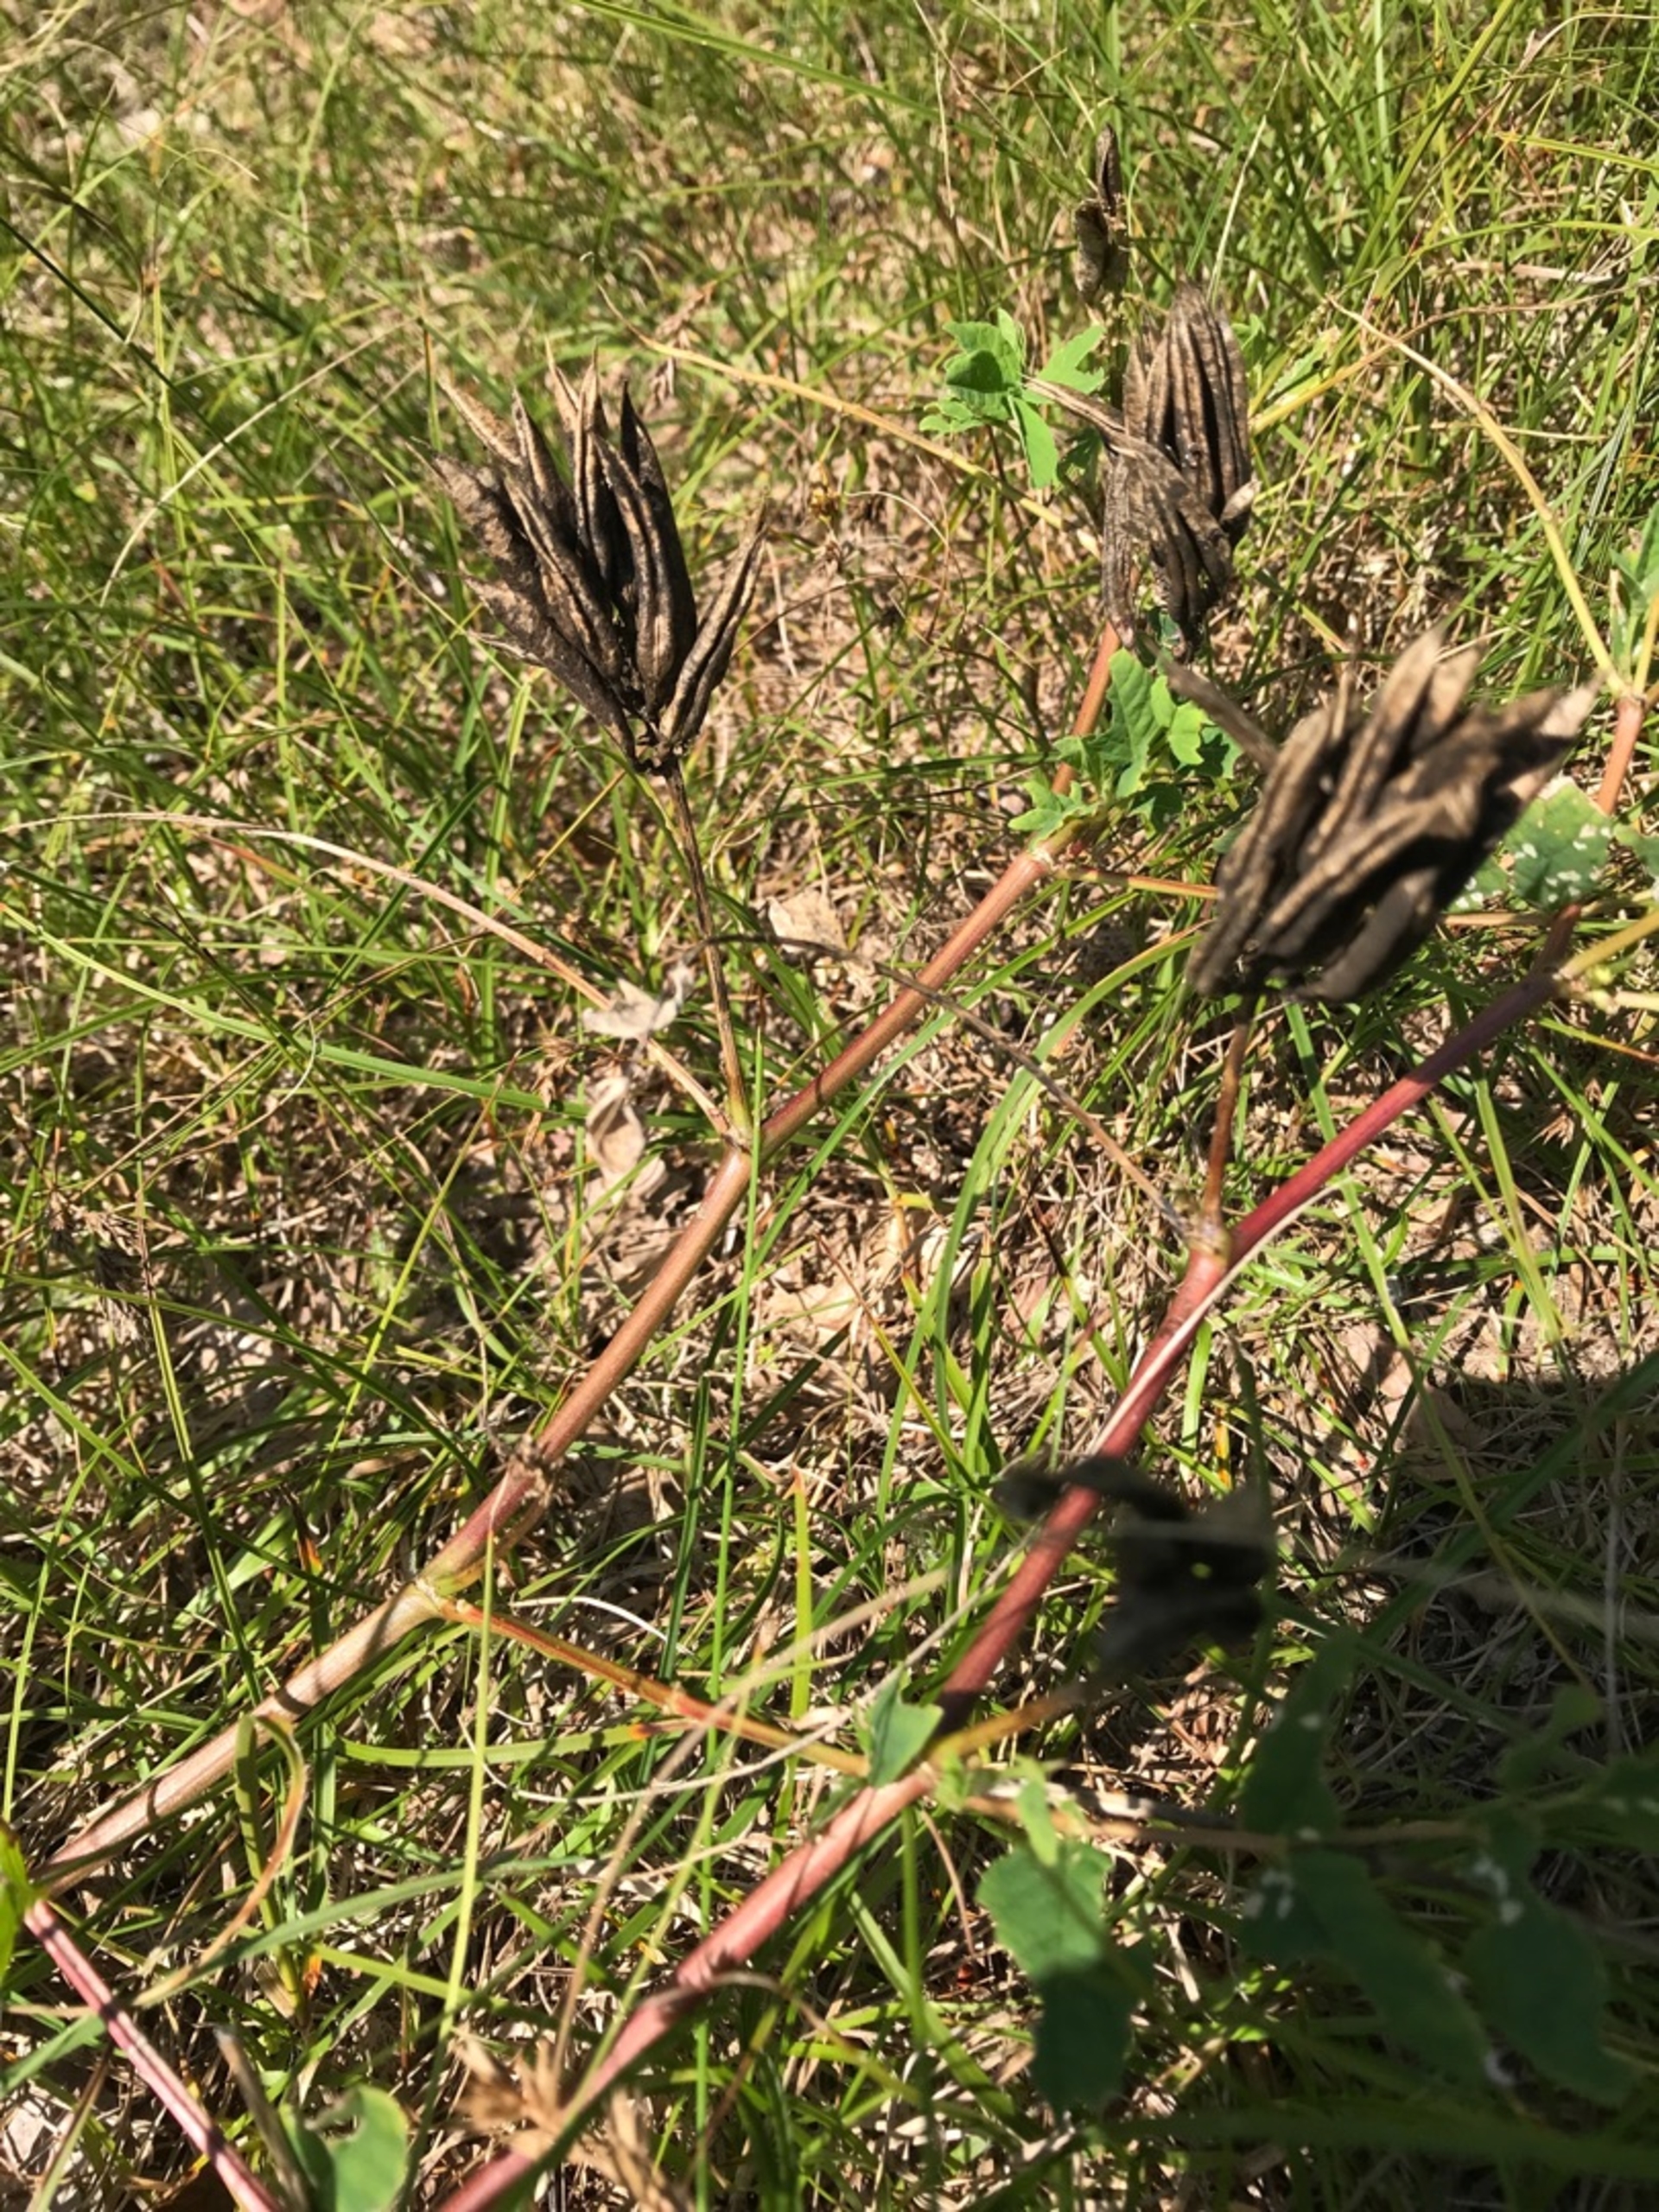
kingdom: Plantae
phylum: Tracheophyta
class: Magnoliopsida
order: Fabales
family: Fabaceae
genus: Astragalus
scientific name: Astragalus glycyphyllos
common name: Sød astragel
